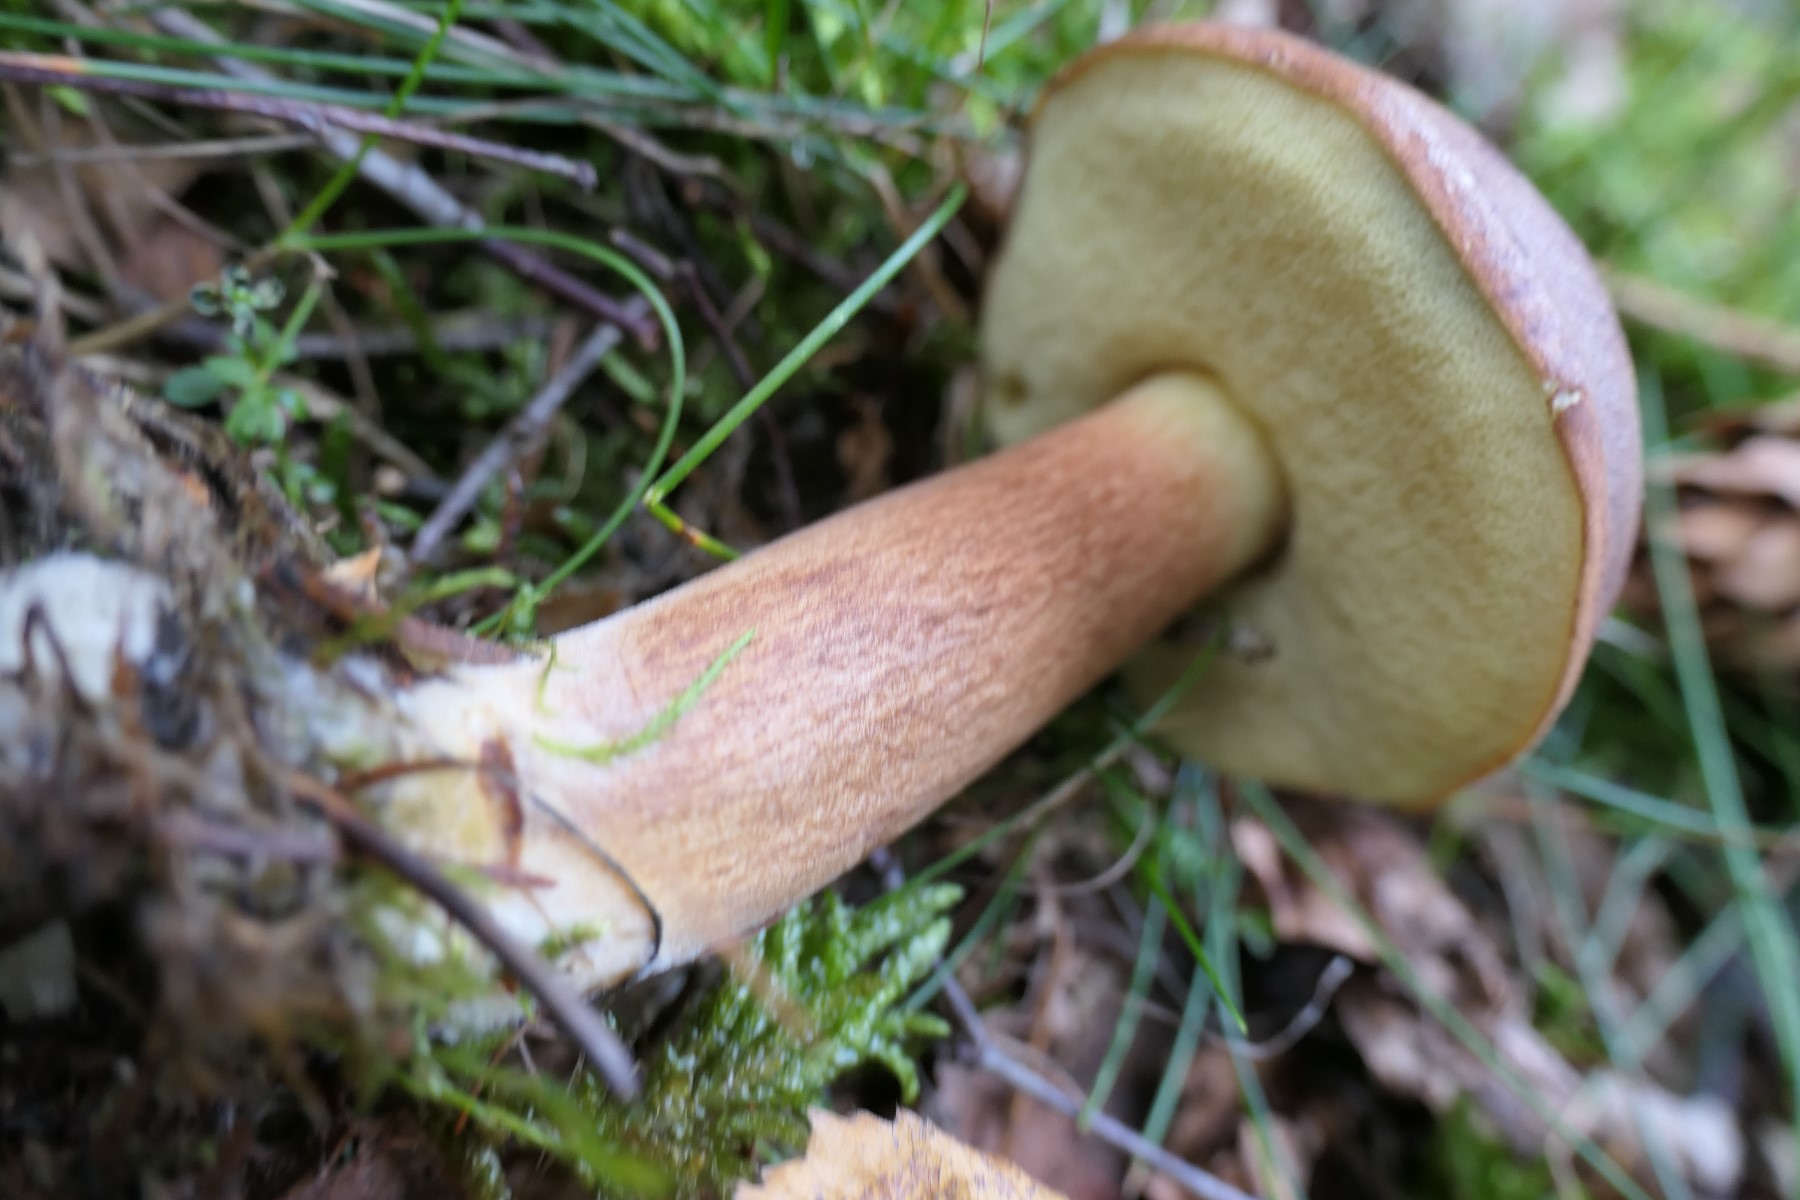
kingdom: Fungi
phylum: Basidiomycota
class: Agaricomycetes
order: Boletales
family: Boletaceae
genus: Imleria
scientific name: Imleria badia
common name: brunstokket rørhat
